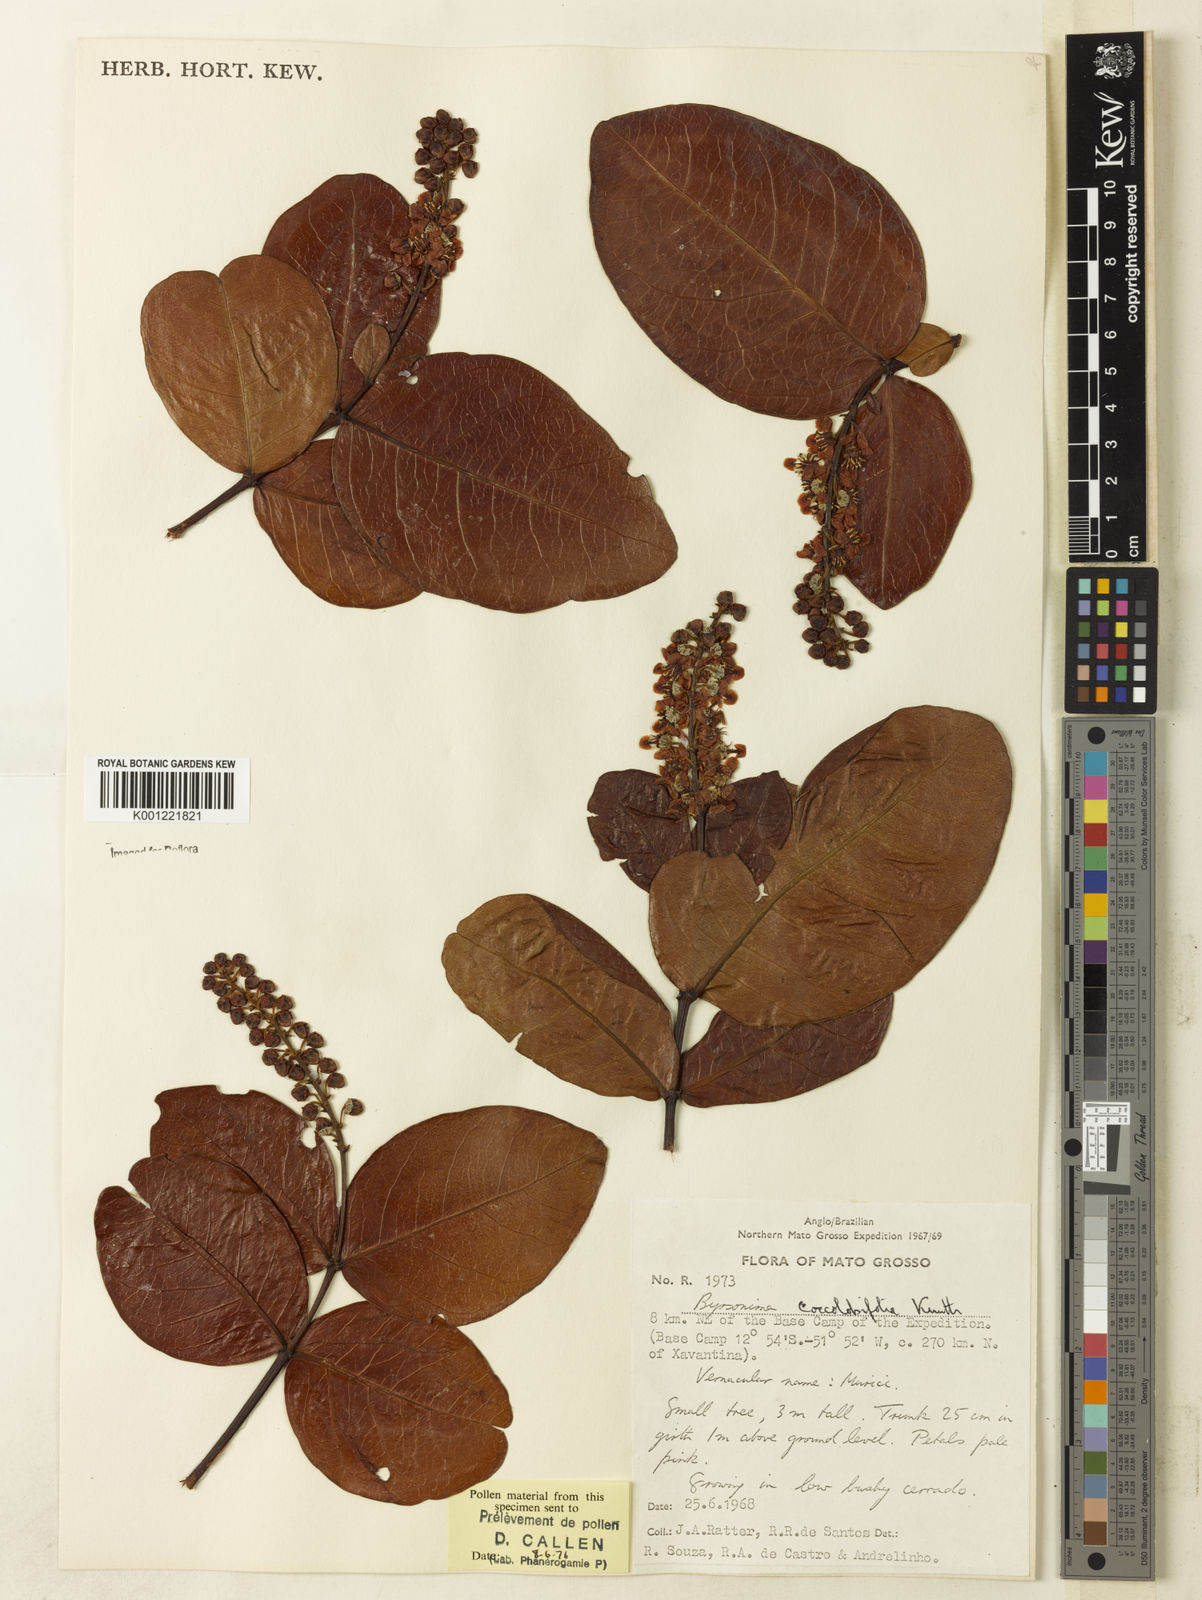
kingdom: Plantae
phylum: Tracheophyta
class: Magnoliopsida
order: Malpighiales
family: Malpighiaceae
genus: Byrsonima
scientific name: Byrsonima coccolobifolia
